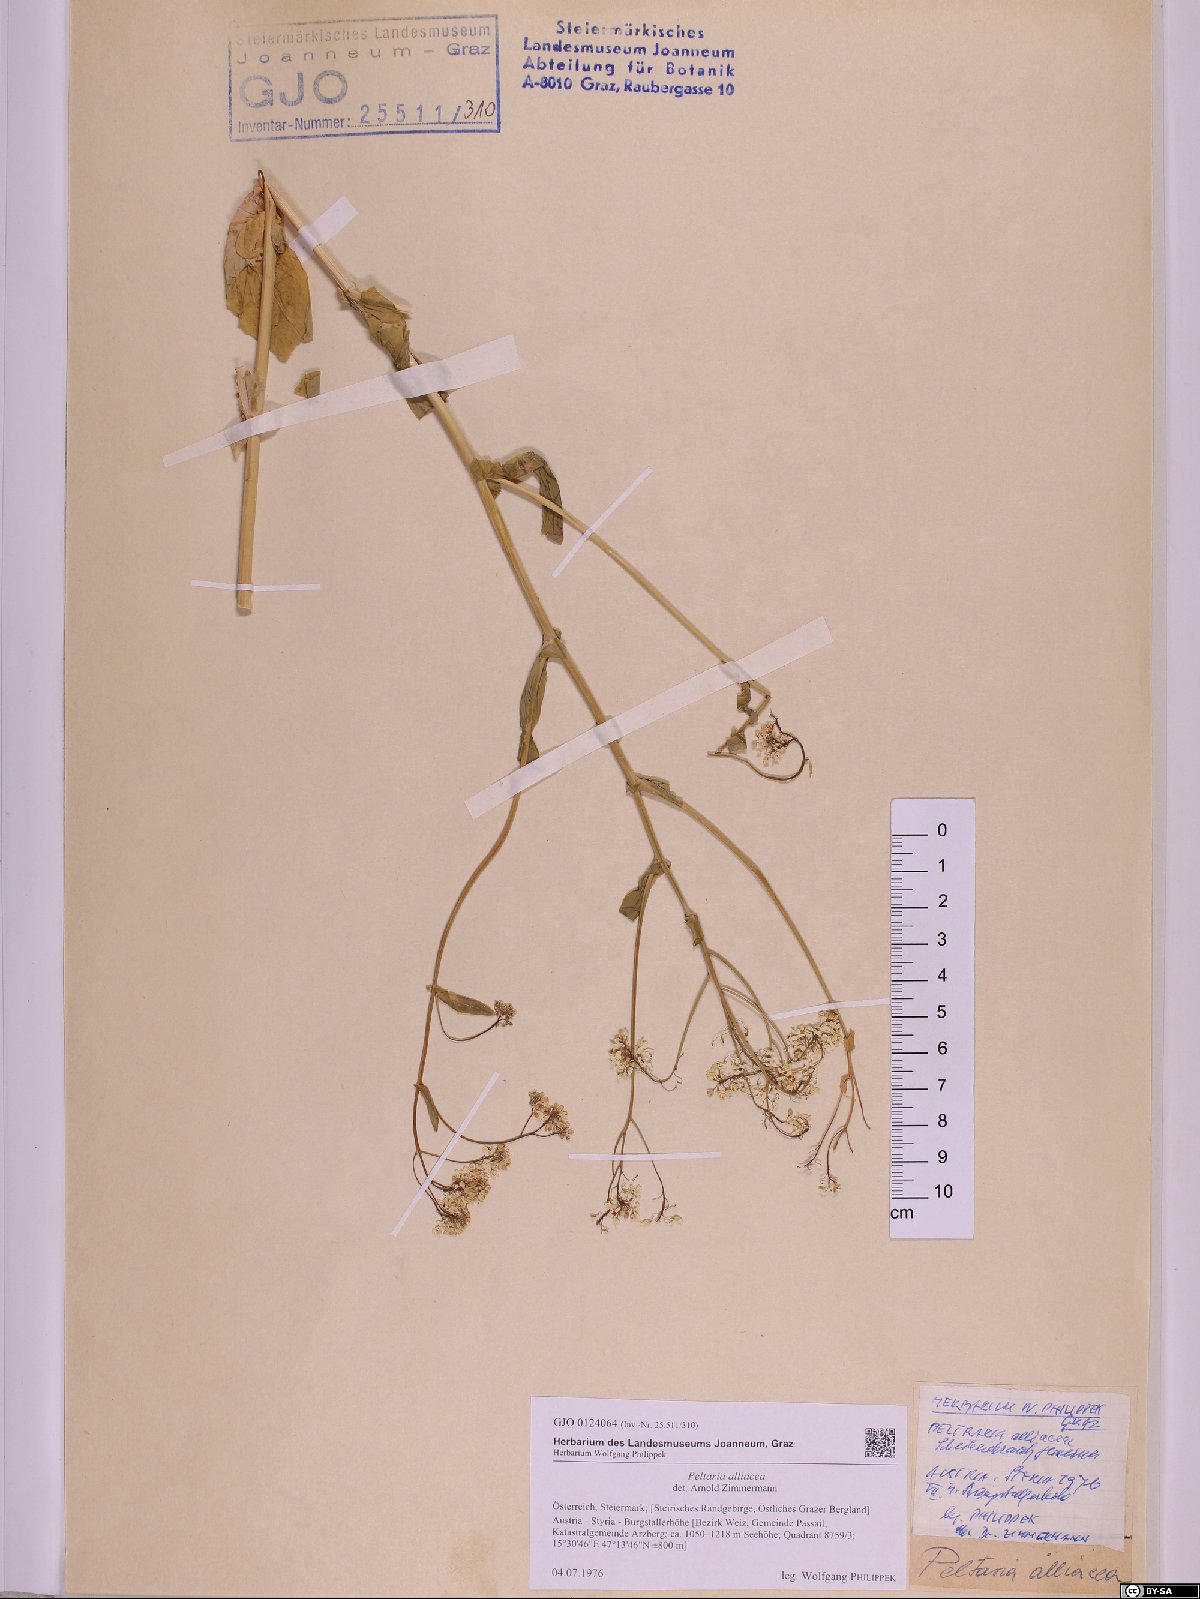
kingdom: Plantae
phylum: Tracheophyta
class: Magnoliopsida
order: Brassicales
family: Brassicaceae
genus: Peltaria
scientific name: Peltaria alliacea
